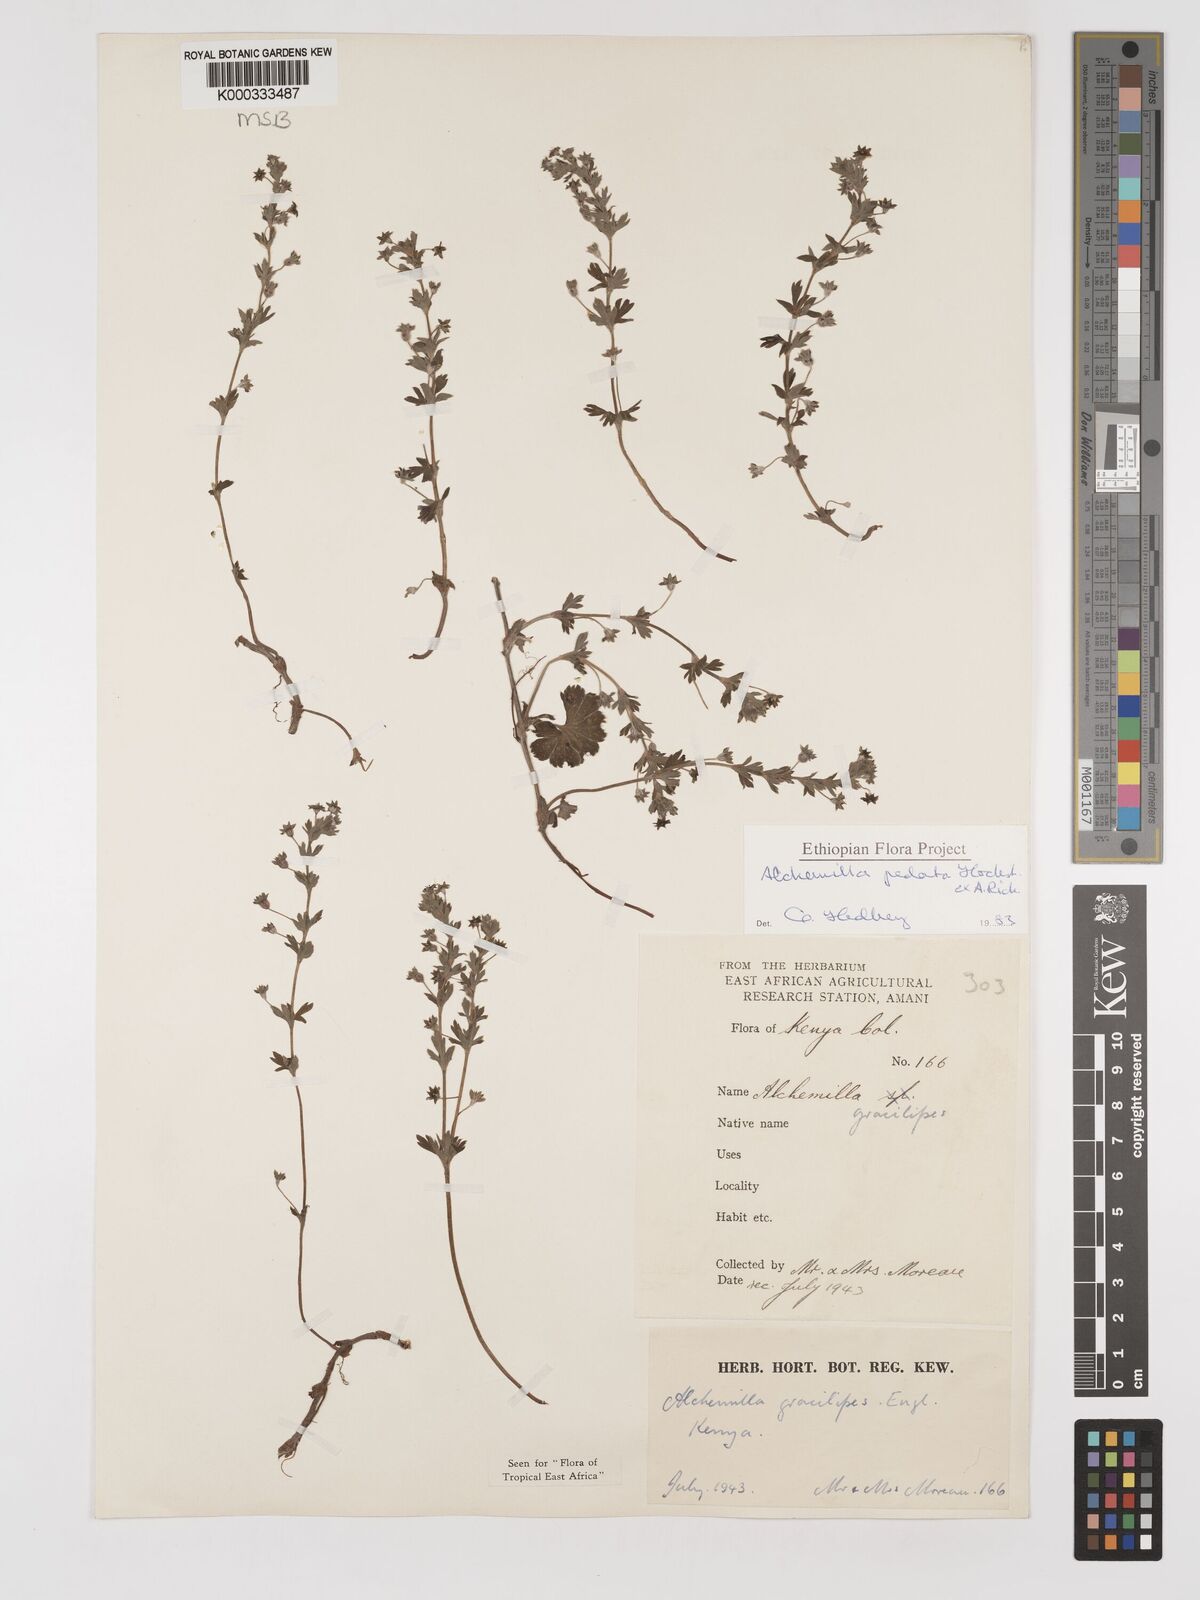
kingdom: Plantae
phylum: Tracheophyta
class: Magnoliopsida
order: Rosales
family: Rosaceae
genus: Alchemilla
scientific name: Alchemilla pedata
